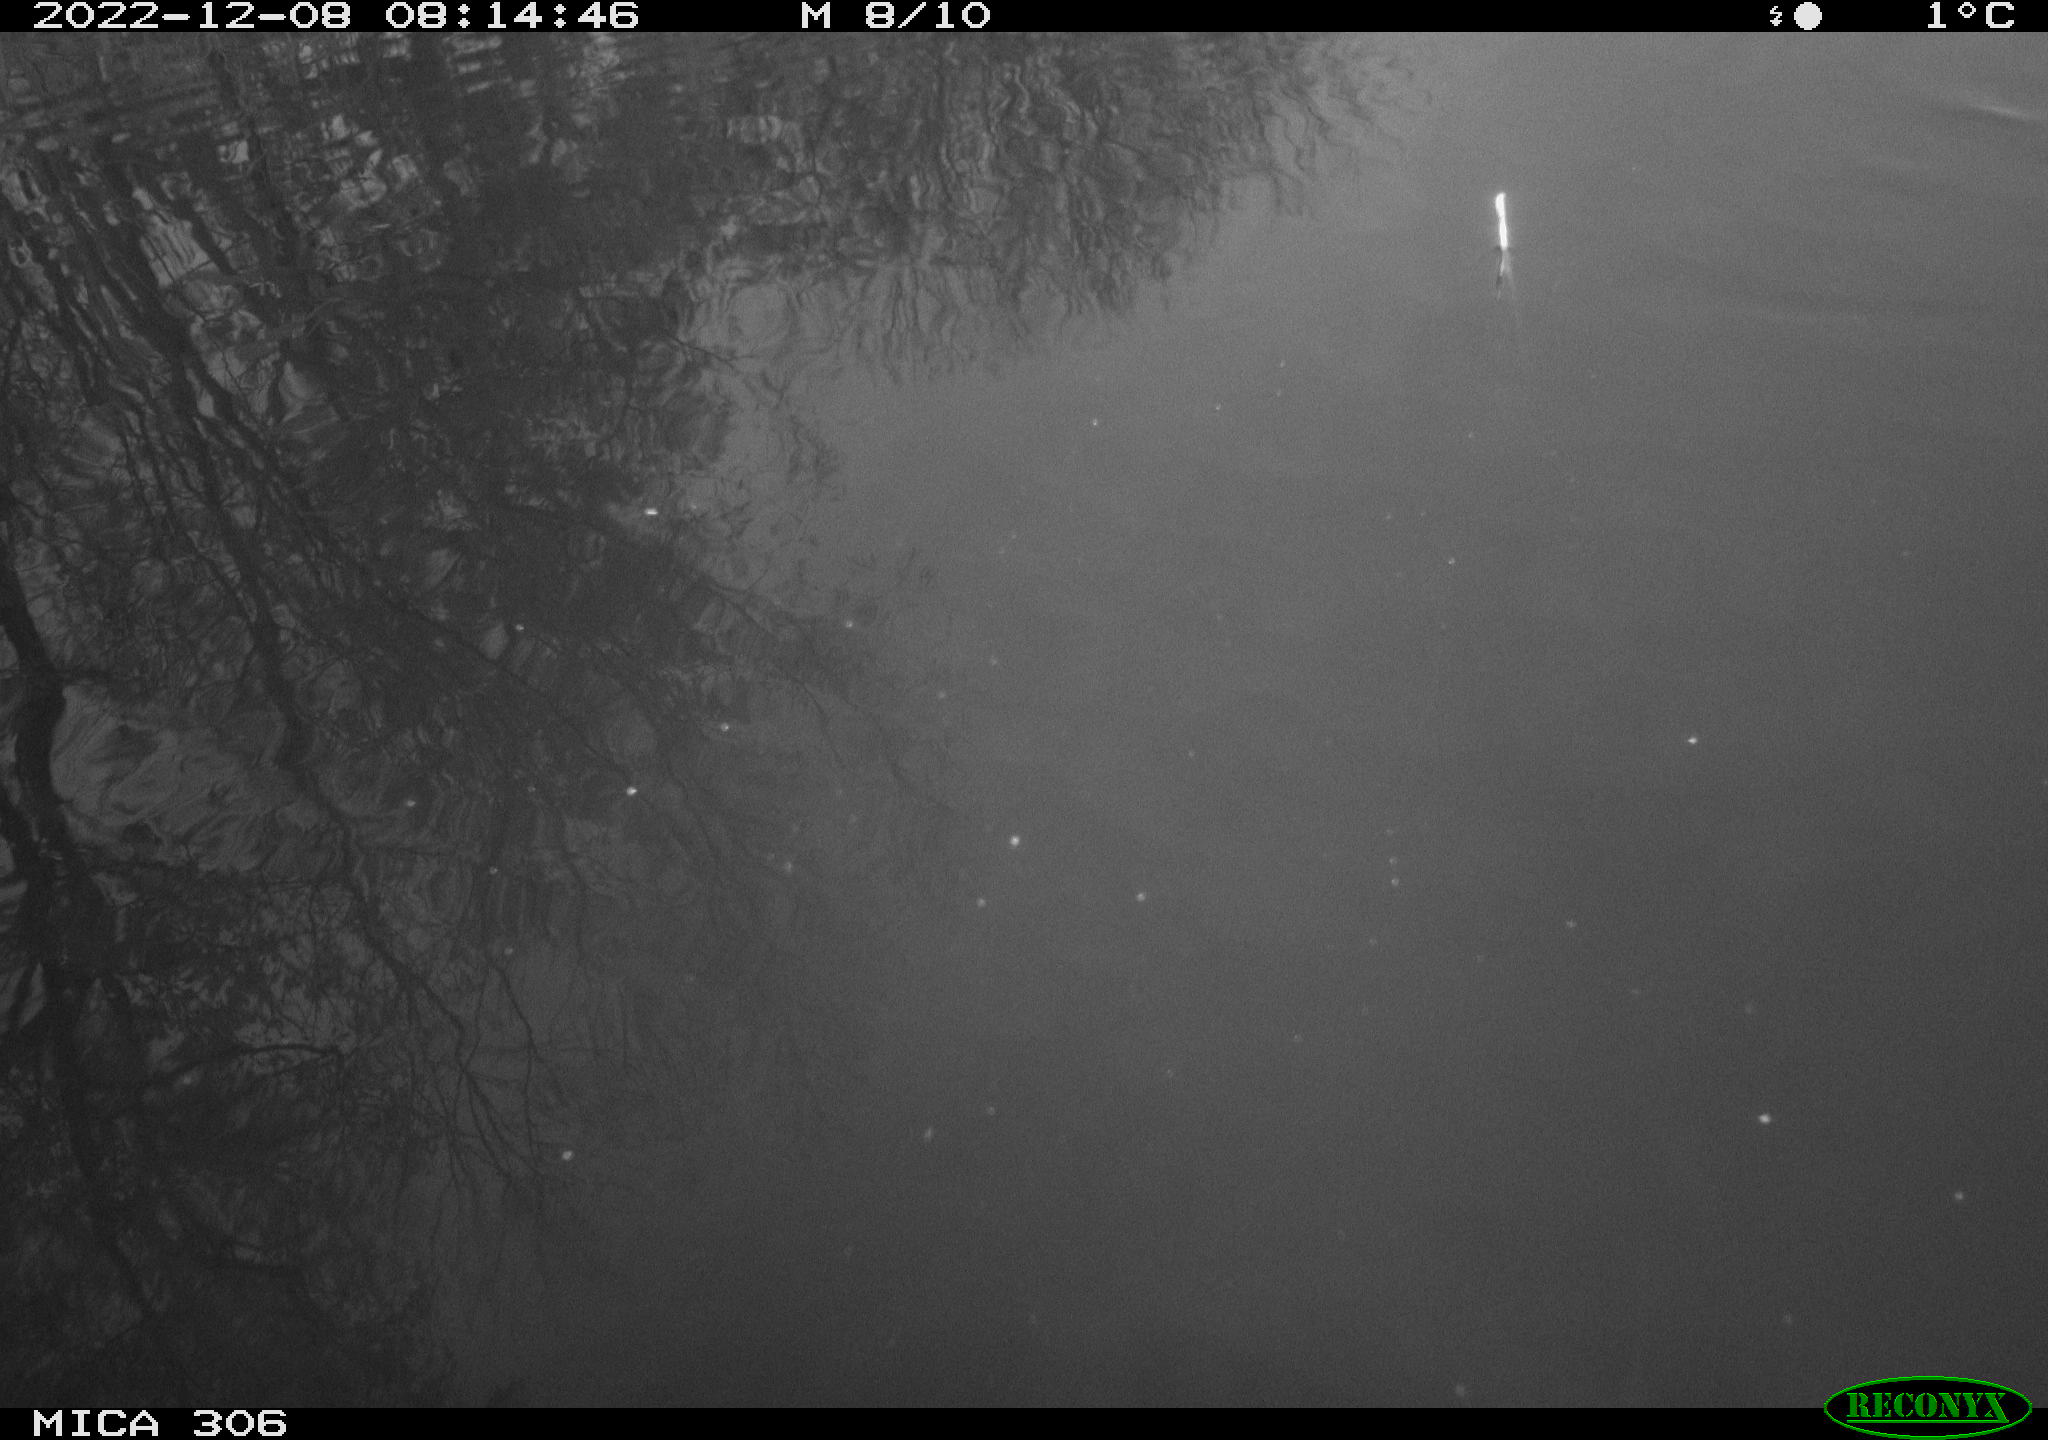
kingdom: Animalia
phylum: Chordata
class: Aves
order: Gruiformes
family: Rallidae
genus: Gallinula
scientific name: Gallinula chloropus
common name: Common moorhen
